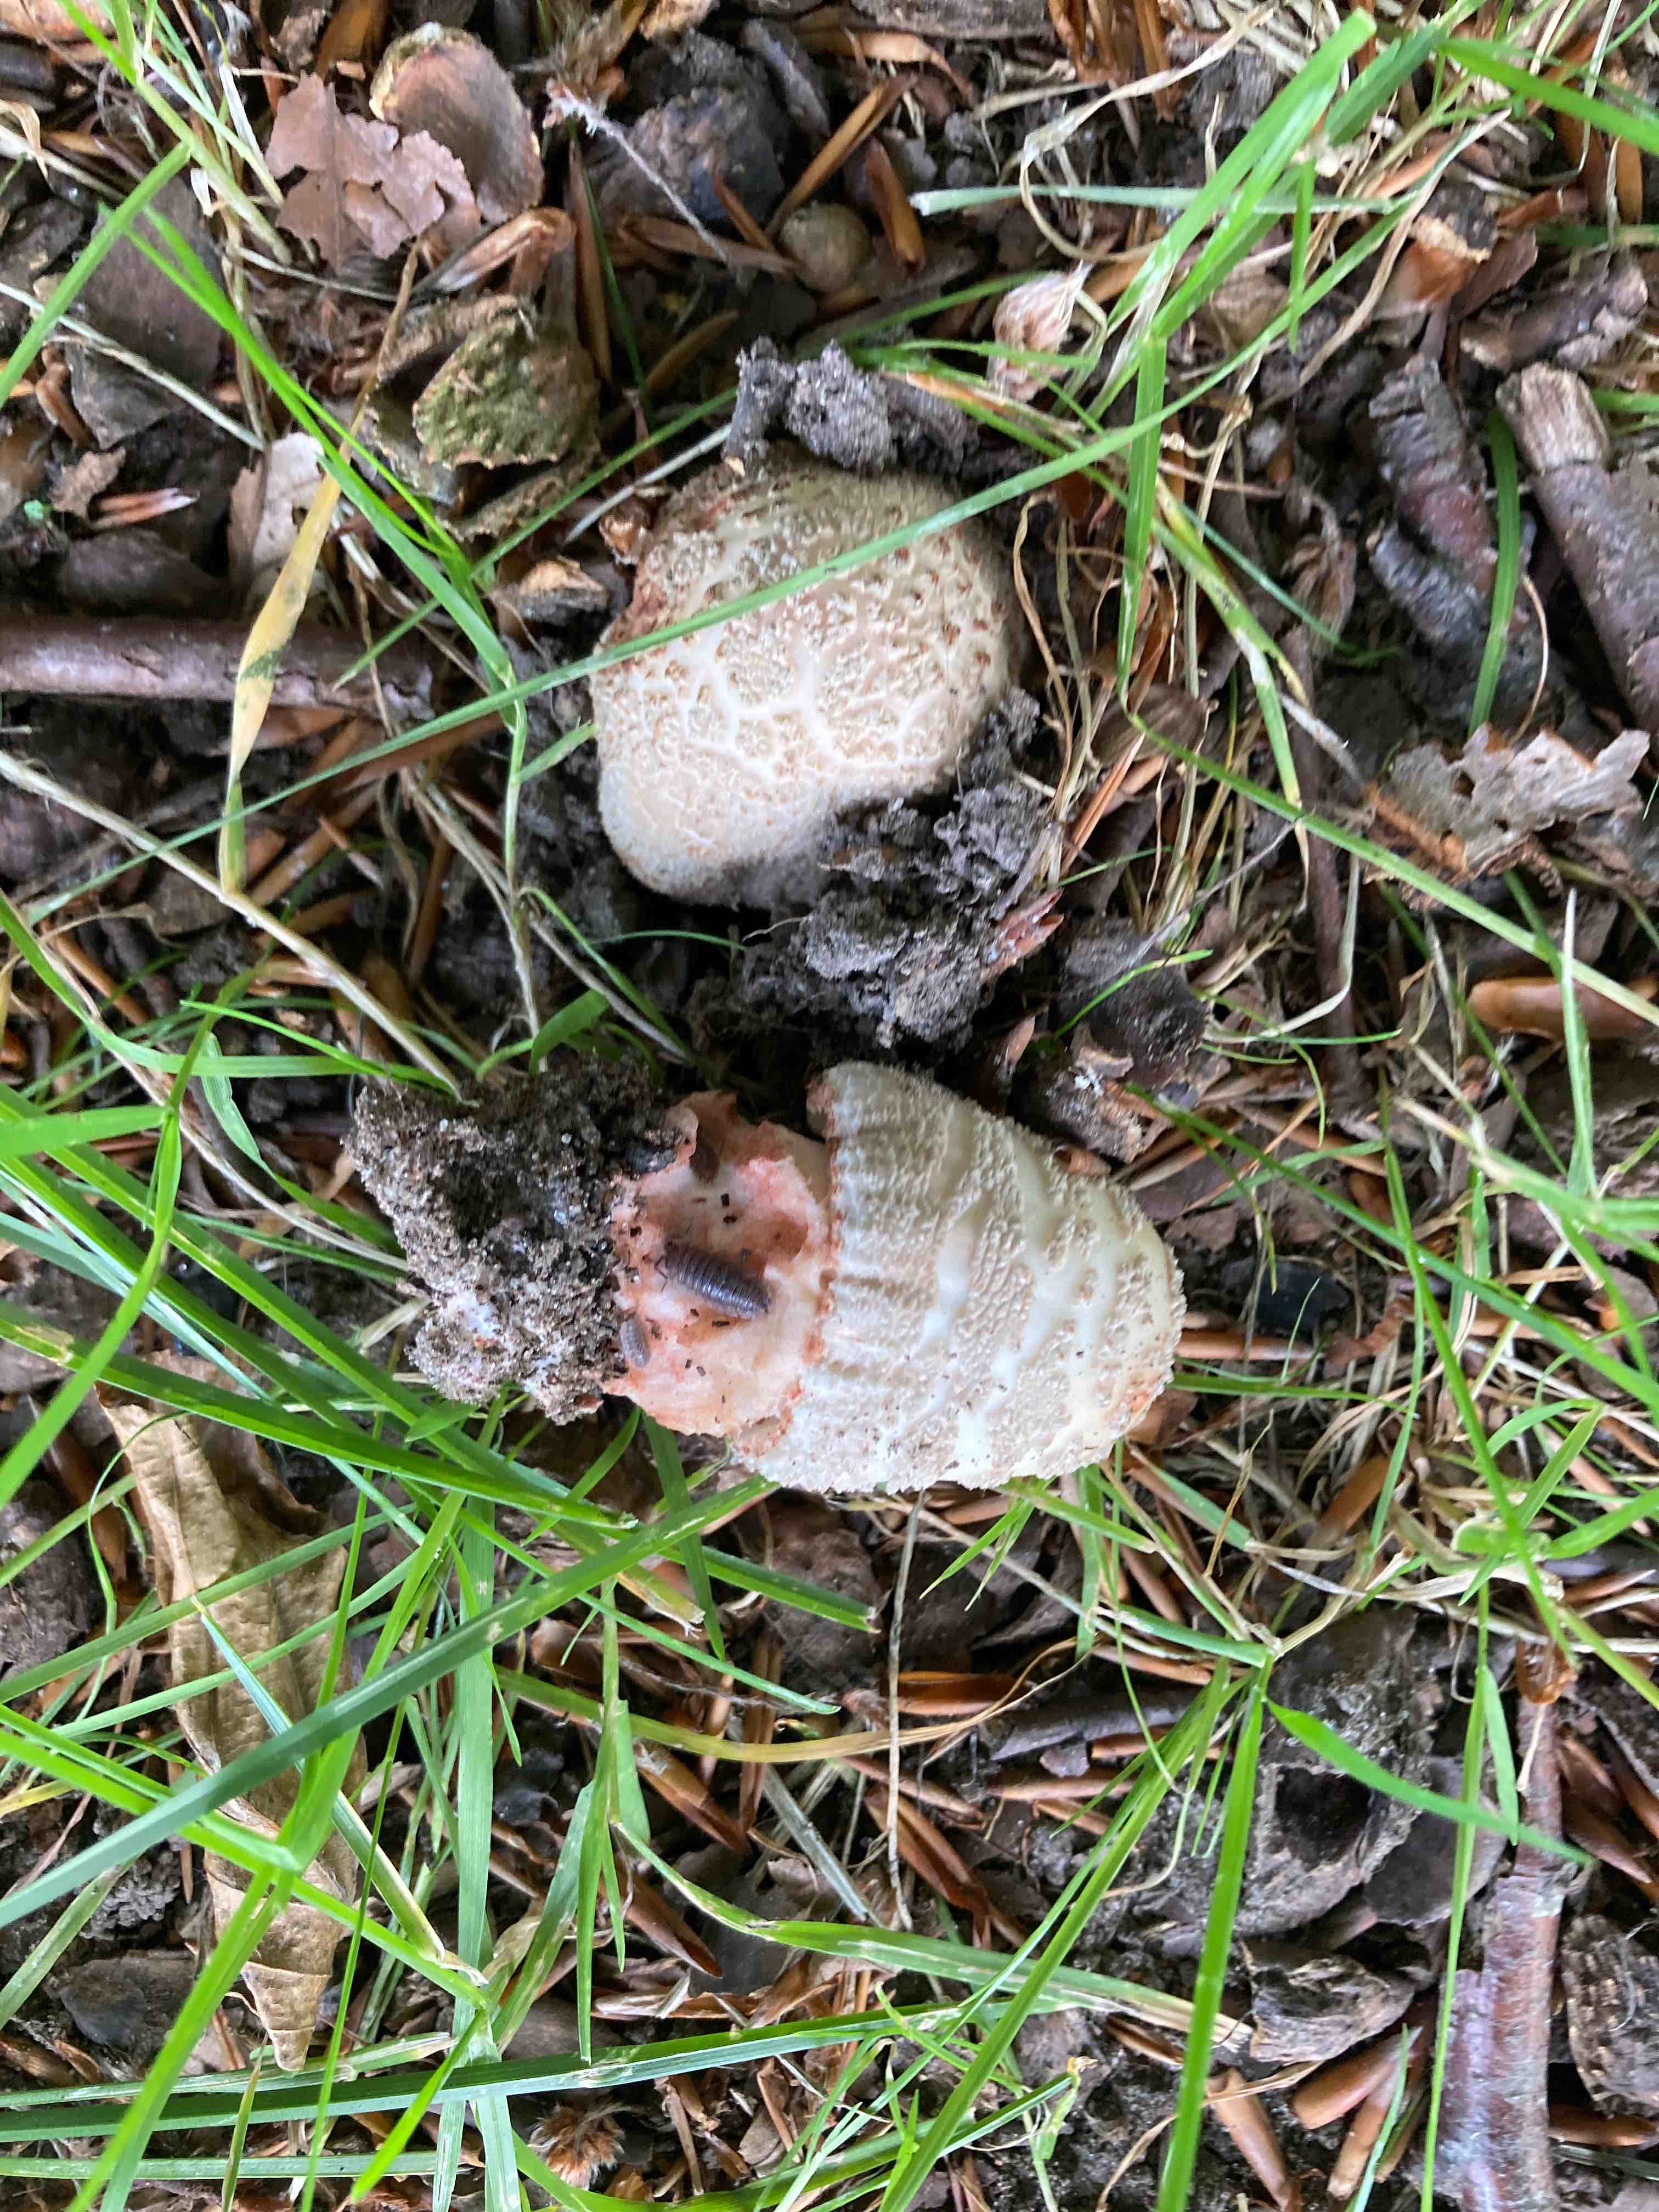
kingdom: Fungi
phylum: Basidiomycota
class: Agaricomycetes
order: Agaricales
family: Amanitaceae
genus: Amanita
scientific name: Amanita rubescens
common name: rødmende fluesvamp
